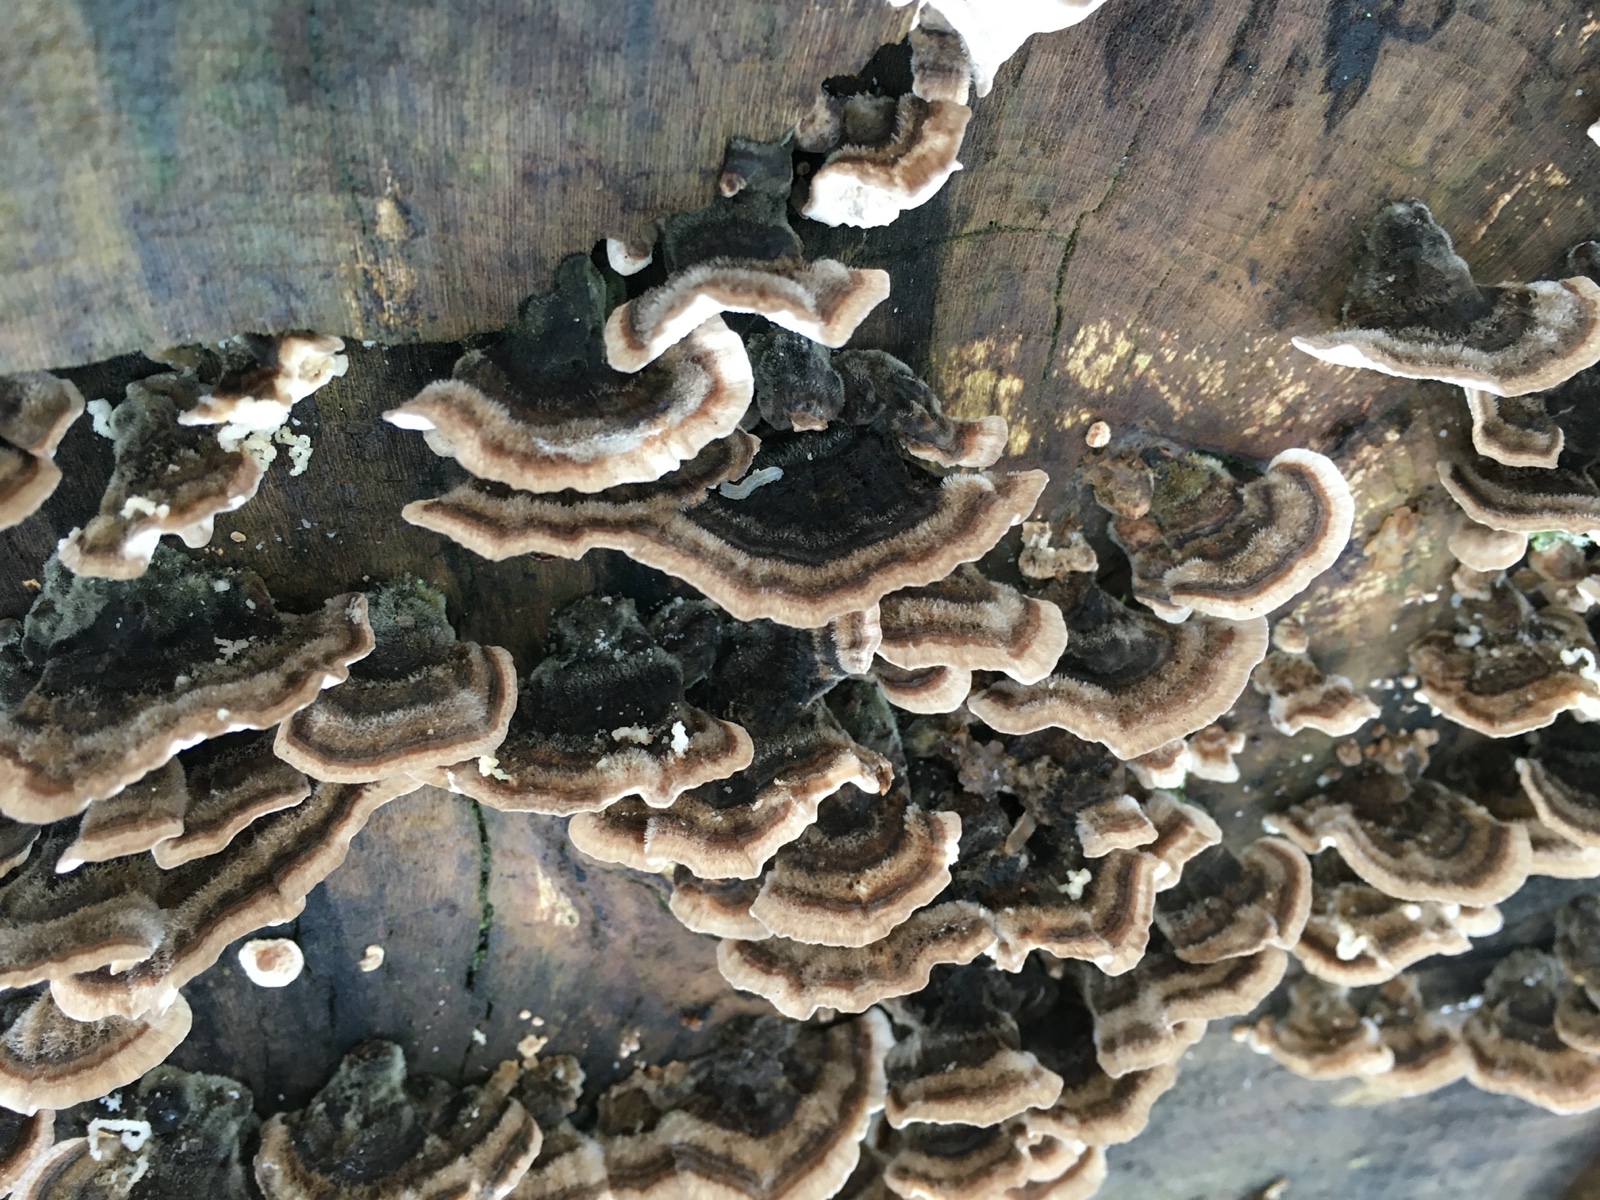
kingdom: Fungi
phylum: Basidiomycota
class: Agaricomycetes
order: Polyporales
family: Polyporaceae
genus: Trametes
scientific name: Trametes versicolor
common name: broget læderporesvamp
